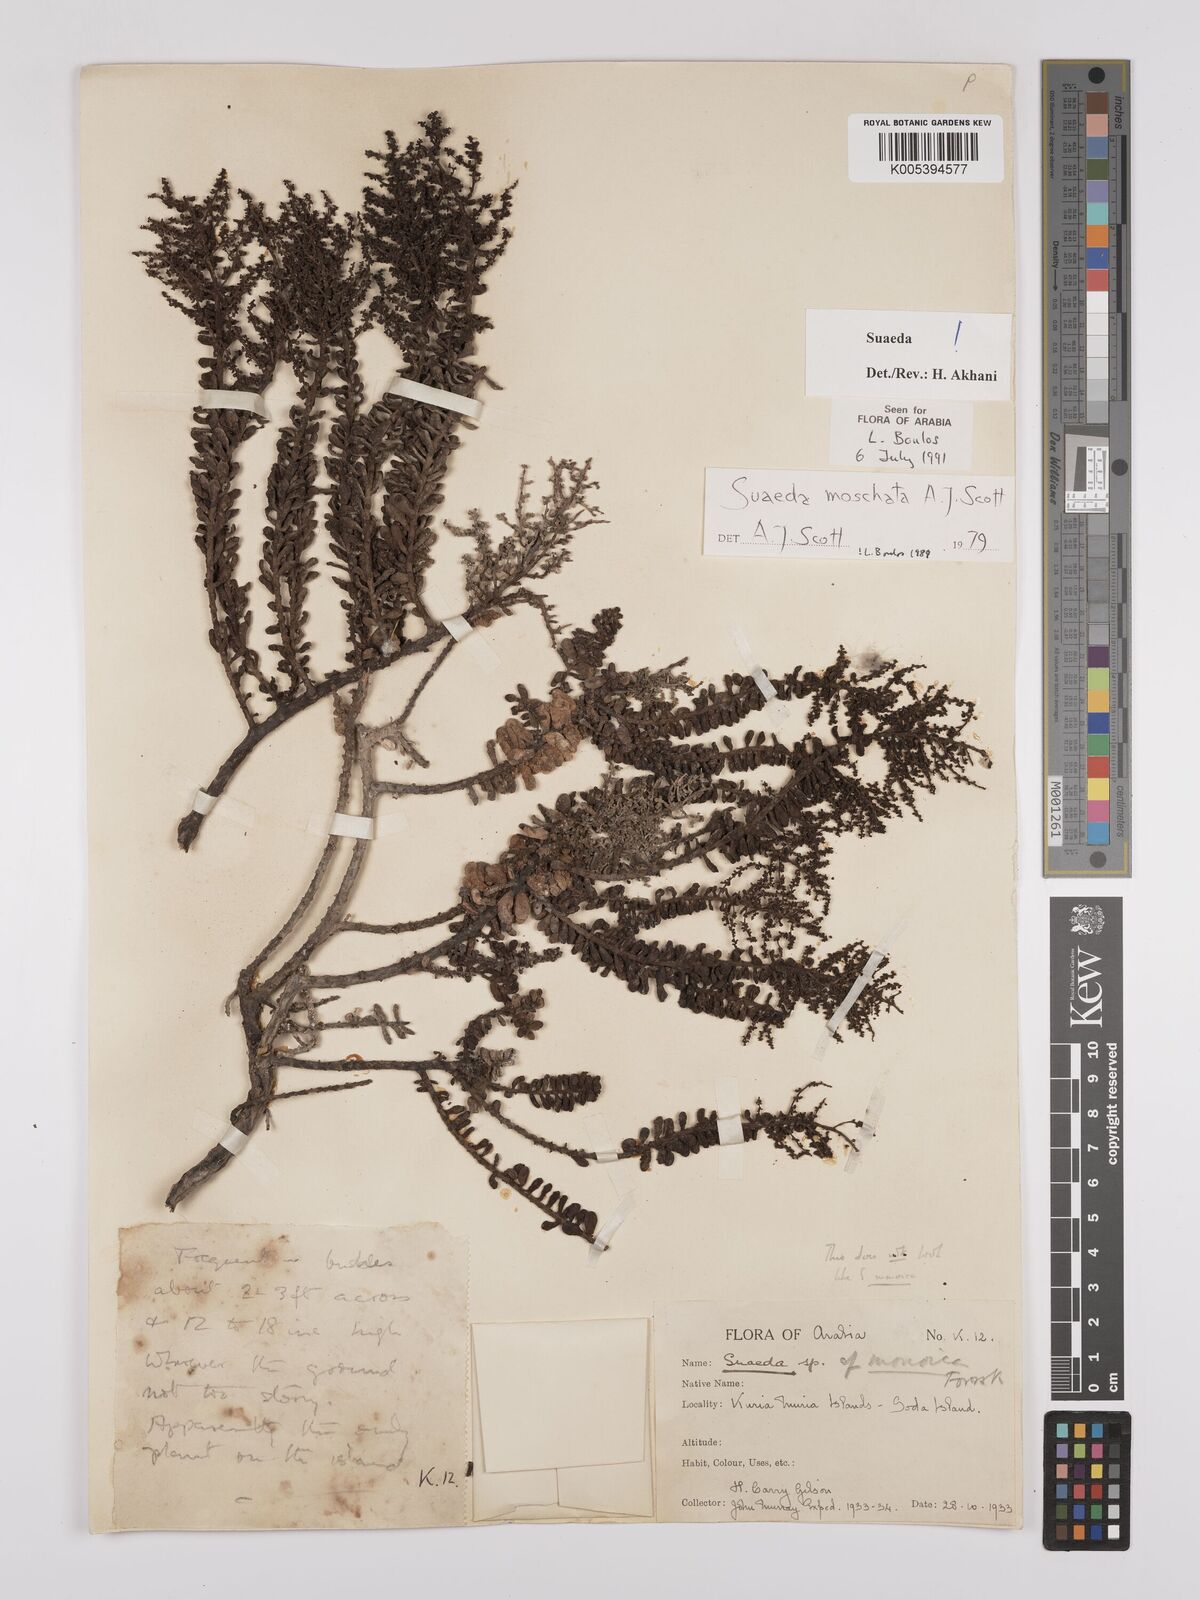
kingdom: Plantae
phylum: Tracheophyta
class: Magnoliopsida
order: Caryophyllales
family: Amaranthaceae
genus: Suaeda
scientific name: Suaeda
